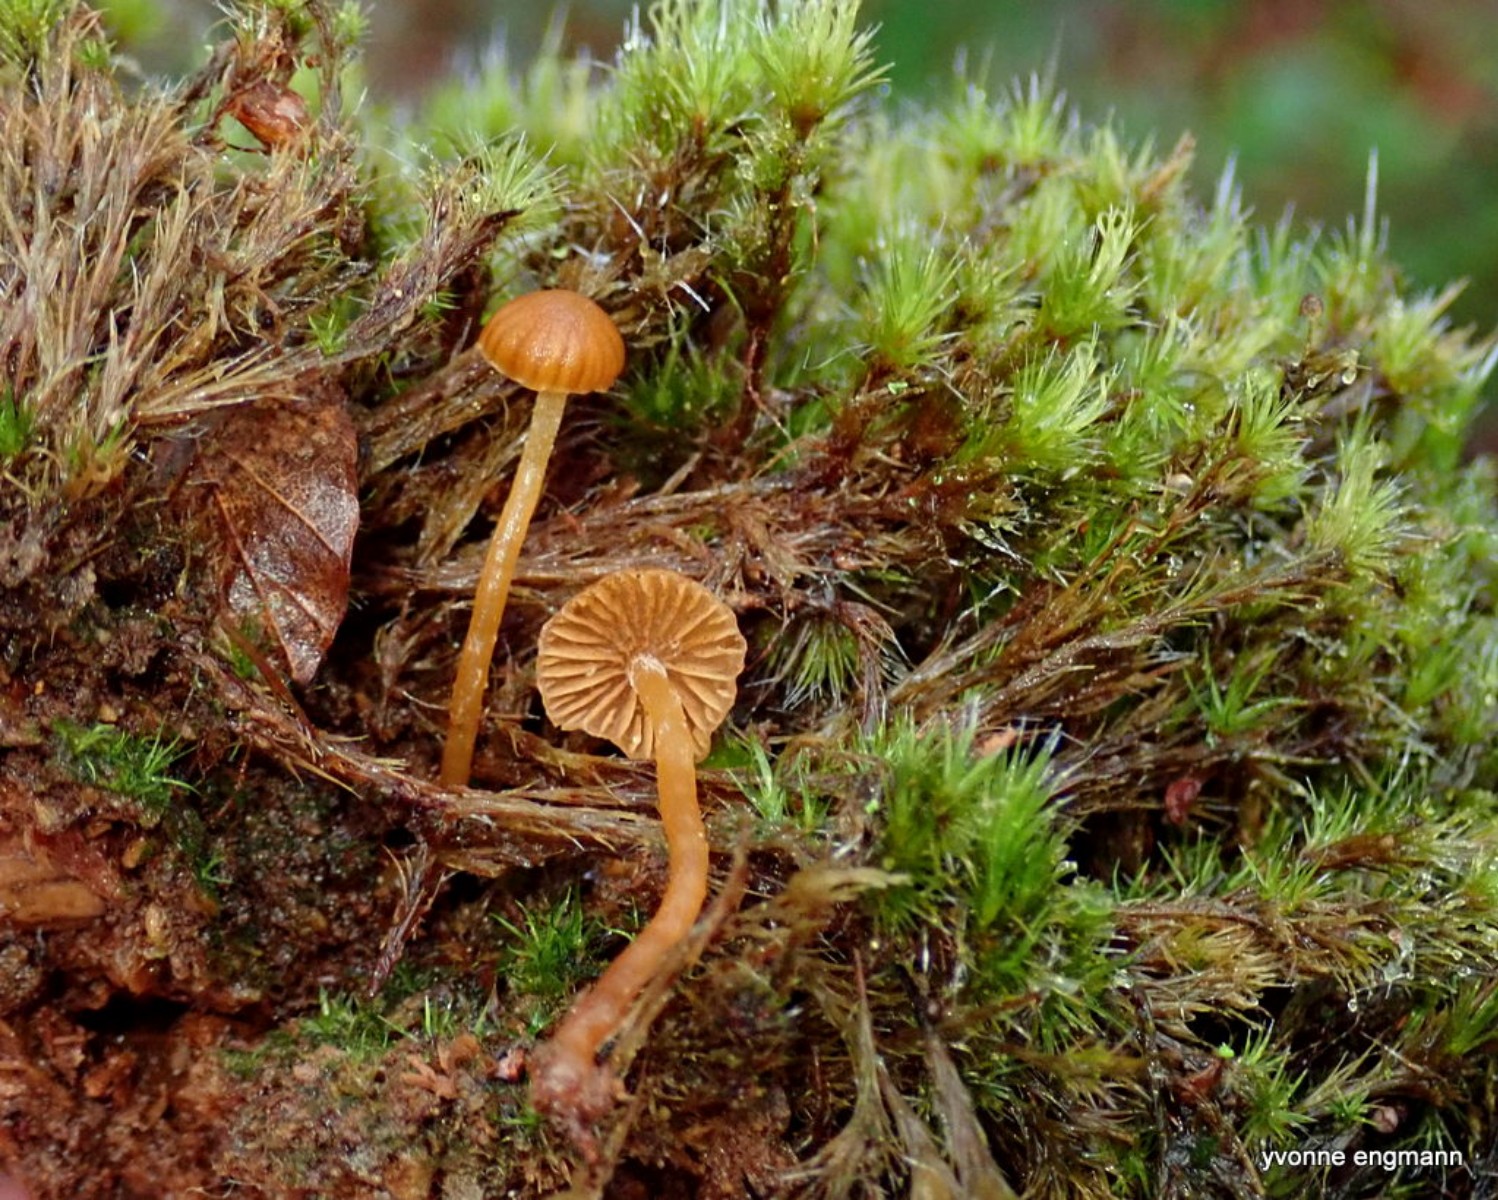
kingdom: Fungi
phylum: Basidiomycota
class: Agaricomycetes
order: Agaricales
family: Hymenogastraceae
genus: Galerina
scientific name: Galerina
